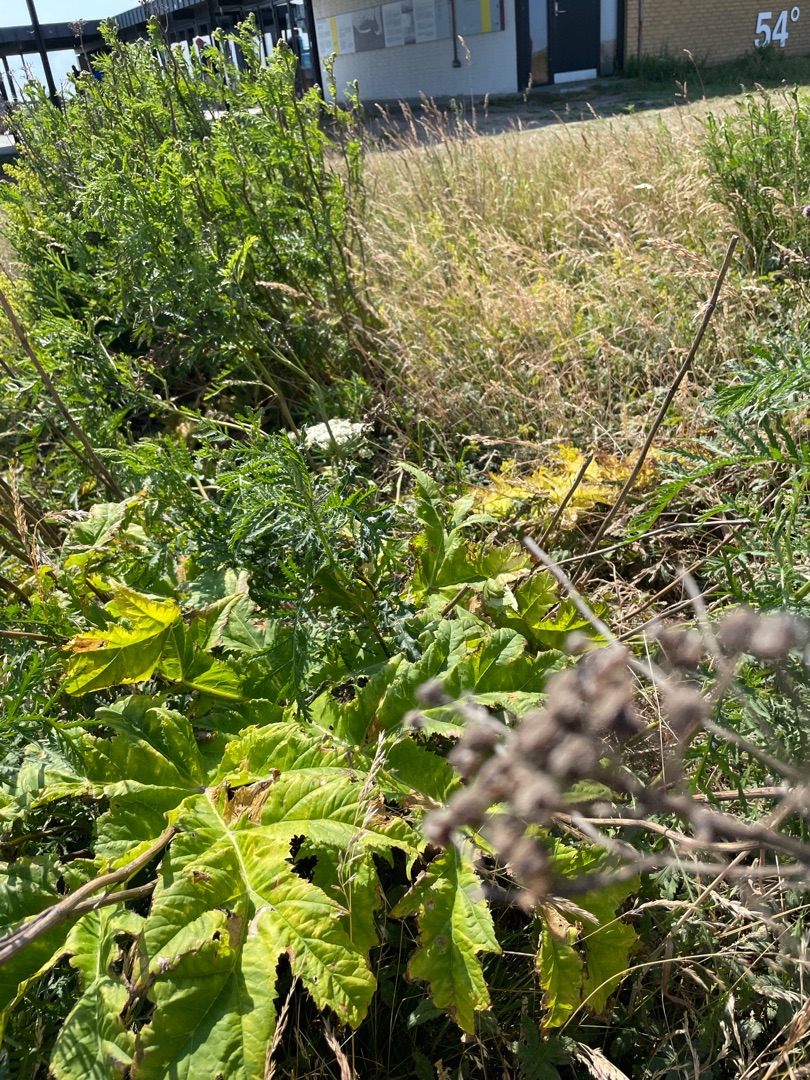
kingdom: Plantae
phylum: Tracheophyta
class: Magnoliopsida
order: Apiales
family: Apiaceae
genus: Heracleum
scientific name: Heracleum mantegazzianum
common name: Kæmpe-bjørneklo
